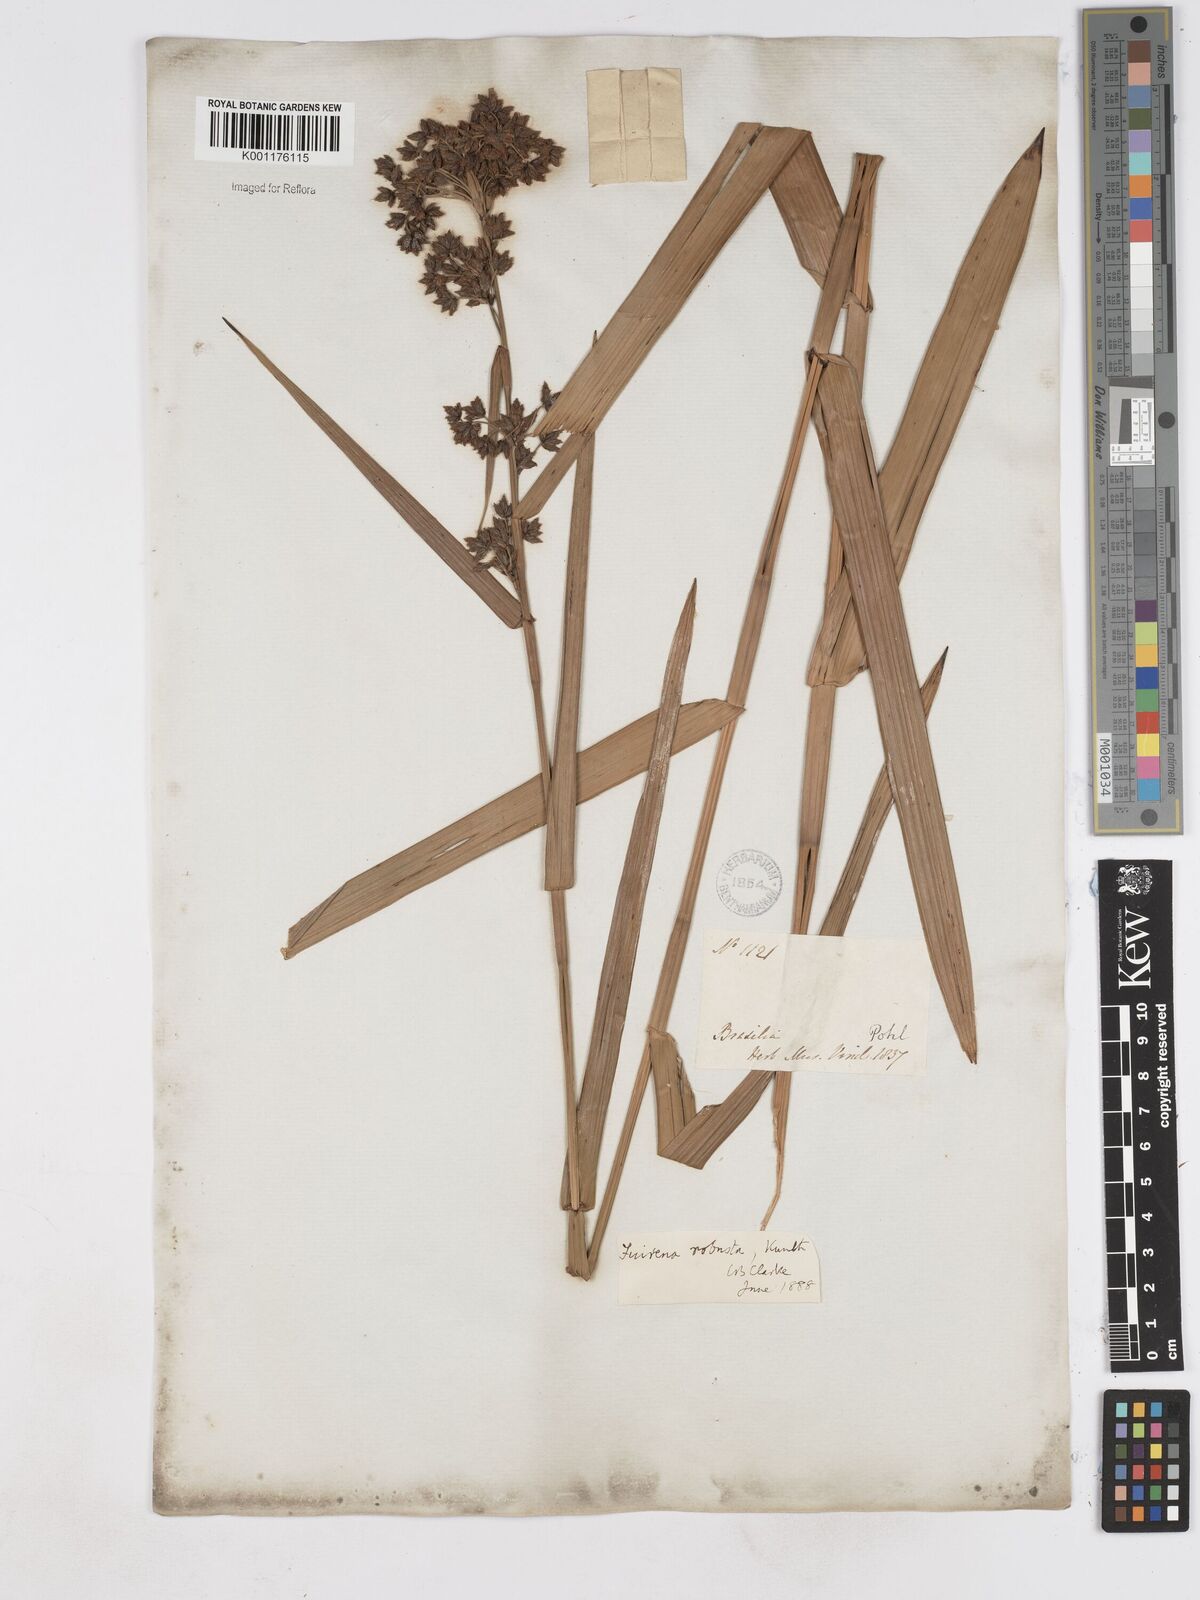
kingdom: Plantae
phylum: Tracheophyta
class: Liliopsida
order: Poales
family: Cyperaceae
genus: Fuirena
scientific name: Fuirena robusta
